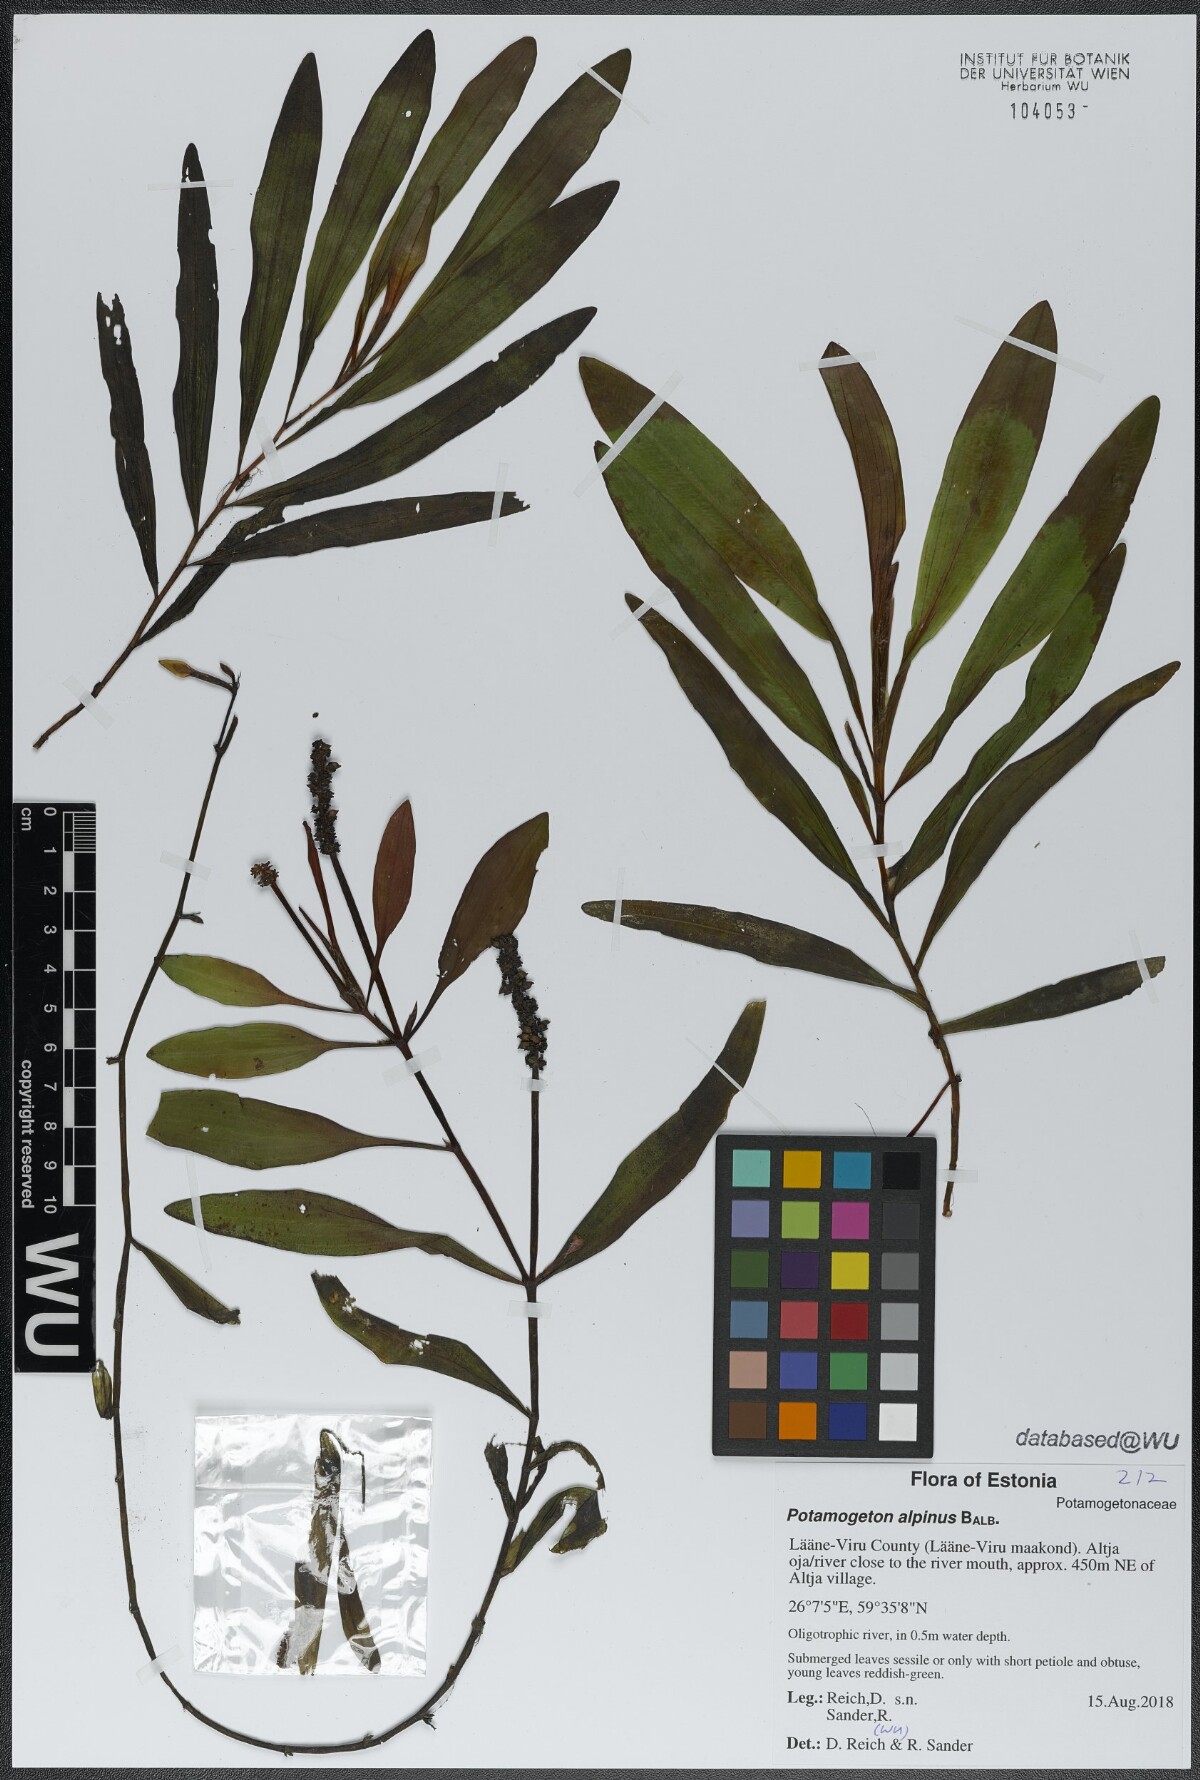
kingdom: Plantae
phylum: Tracheophyta
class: Liliopsida
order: Alismatales
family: Potamogetonaceae
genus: Potamogeton
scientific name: Potamogeton alpinus
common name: Red pondweed
